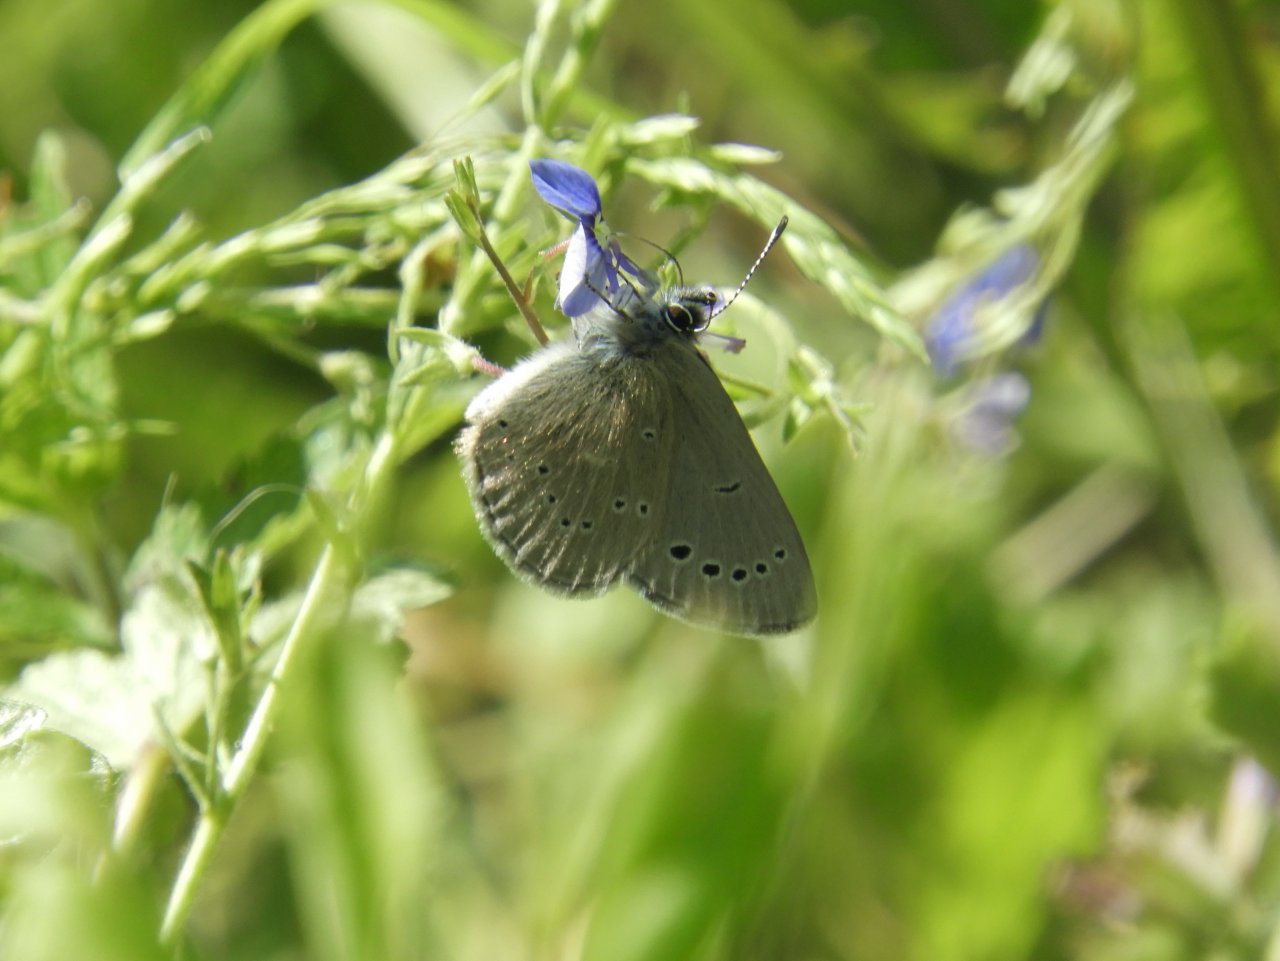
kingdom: Animalia
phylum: Arthropoda
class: Insecta
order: Lepidoptera
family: Lycaenidae
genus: Glaucopsyche
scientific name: Glaucopsyche lygdamus
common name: Silvery Blue
